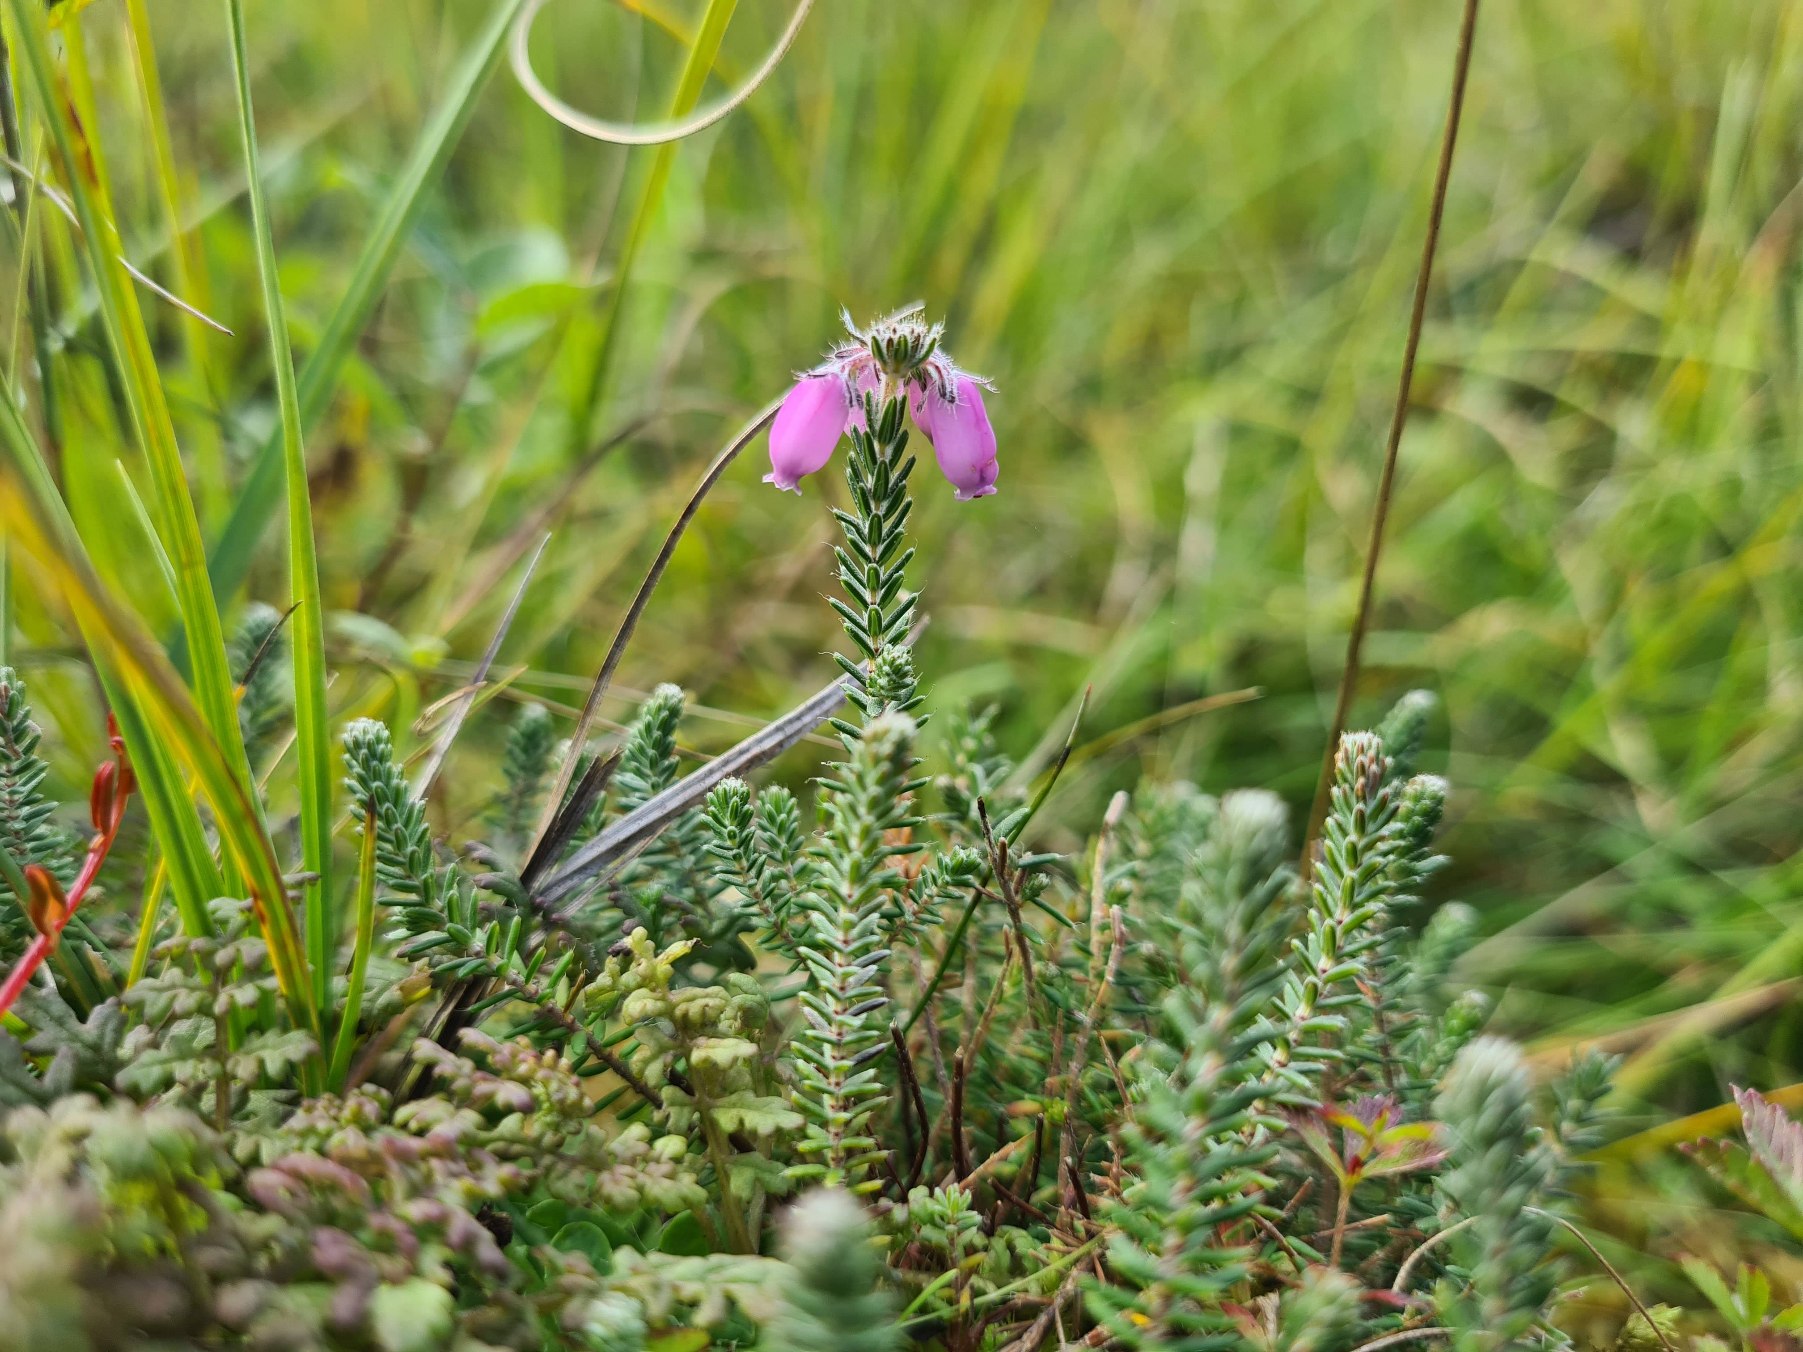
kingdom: Plantae
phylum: Tracheophyta
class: Magnoliopsida
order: Ericales
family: Ericaceae
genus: Erica
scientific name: Erica tetralix
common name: Klokkelyng
